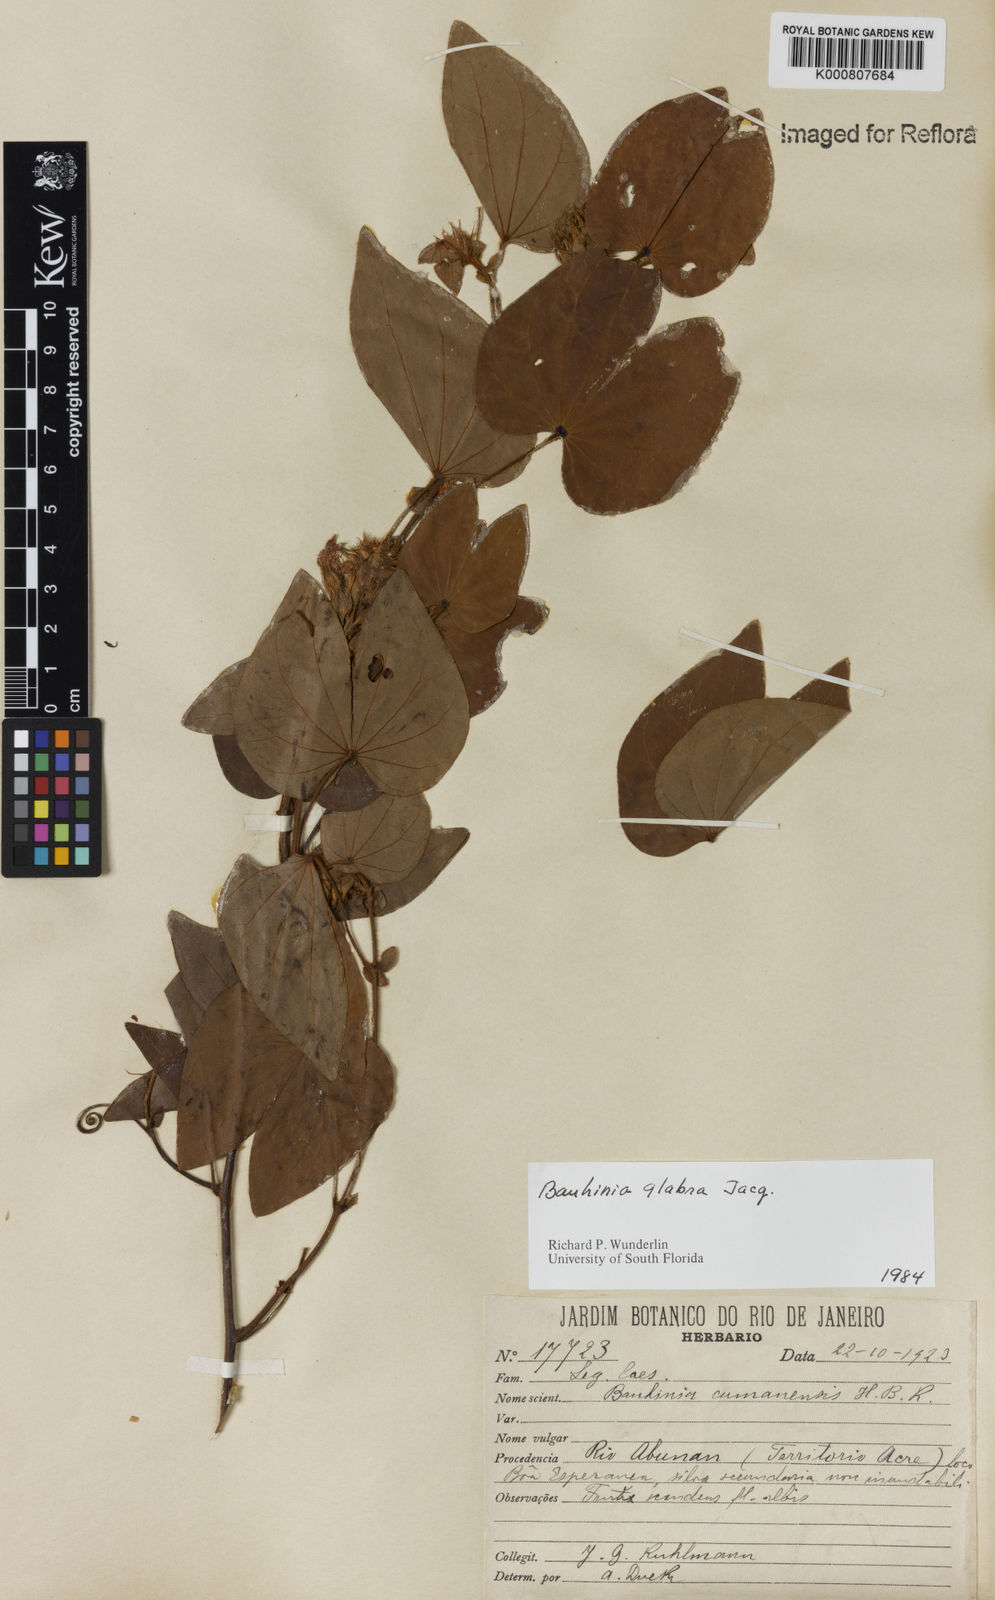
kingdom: Plantae
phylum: Tracheophyta
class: Magnoliopsida
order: Fabales
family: Fabaceae
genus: Schnella
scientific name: Schnella glabra
